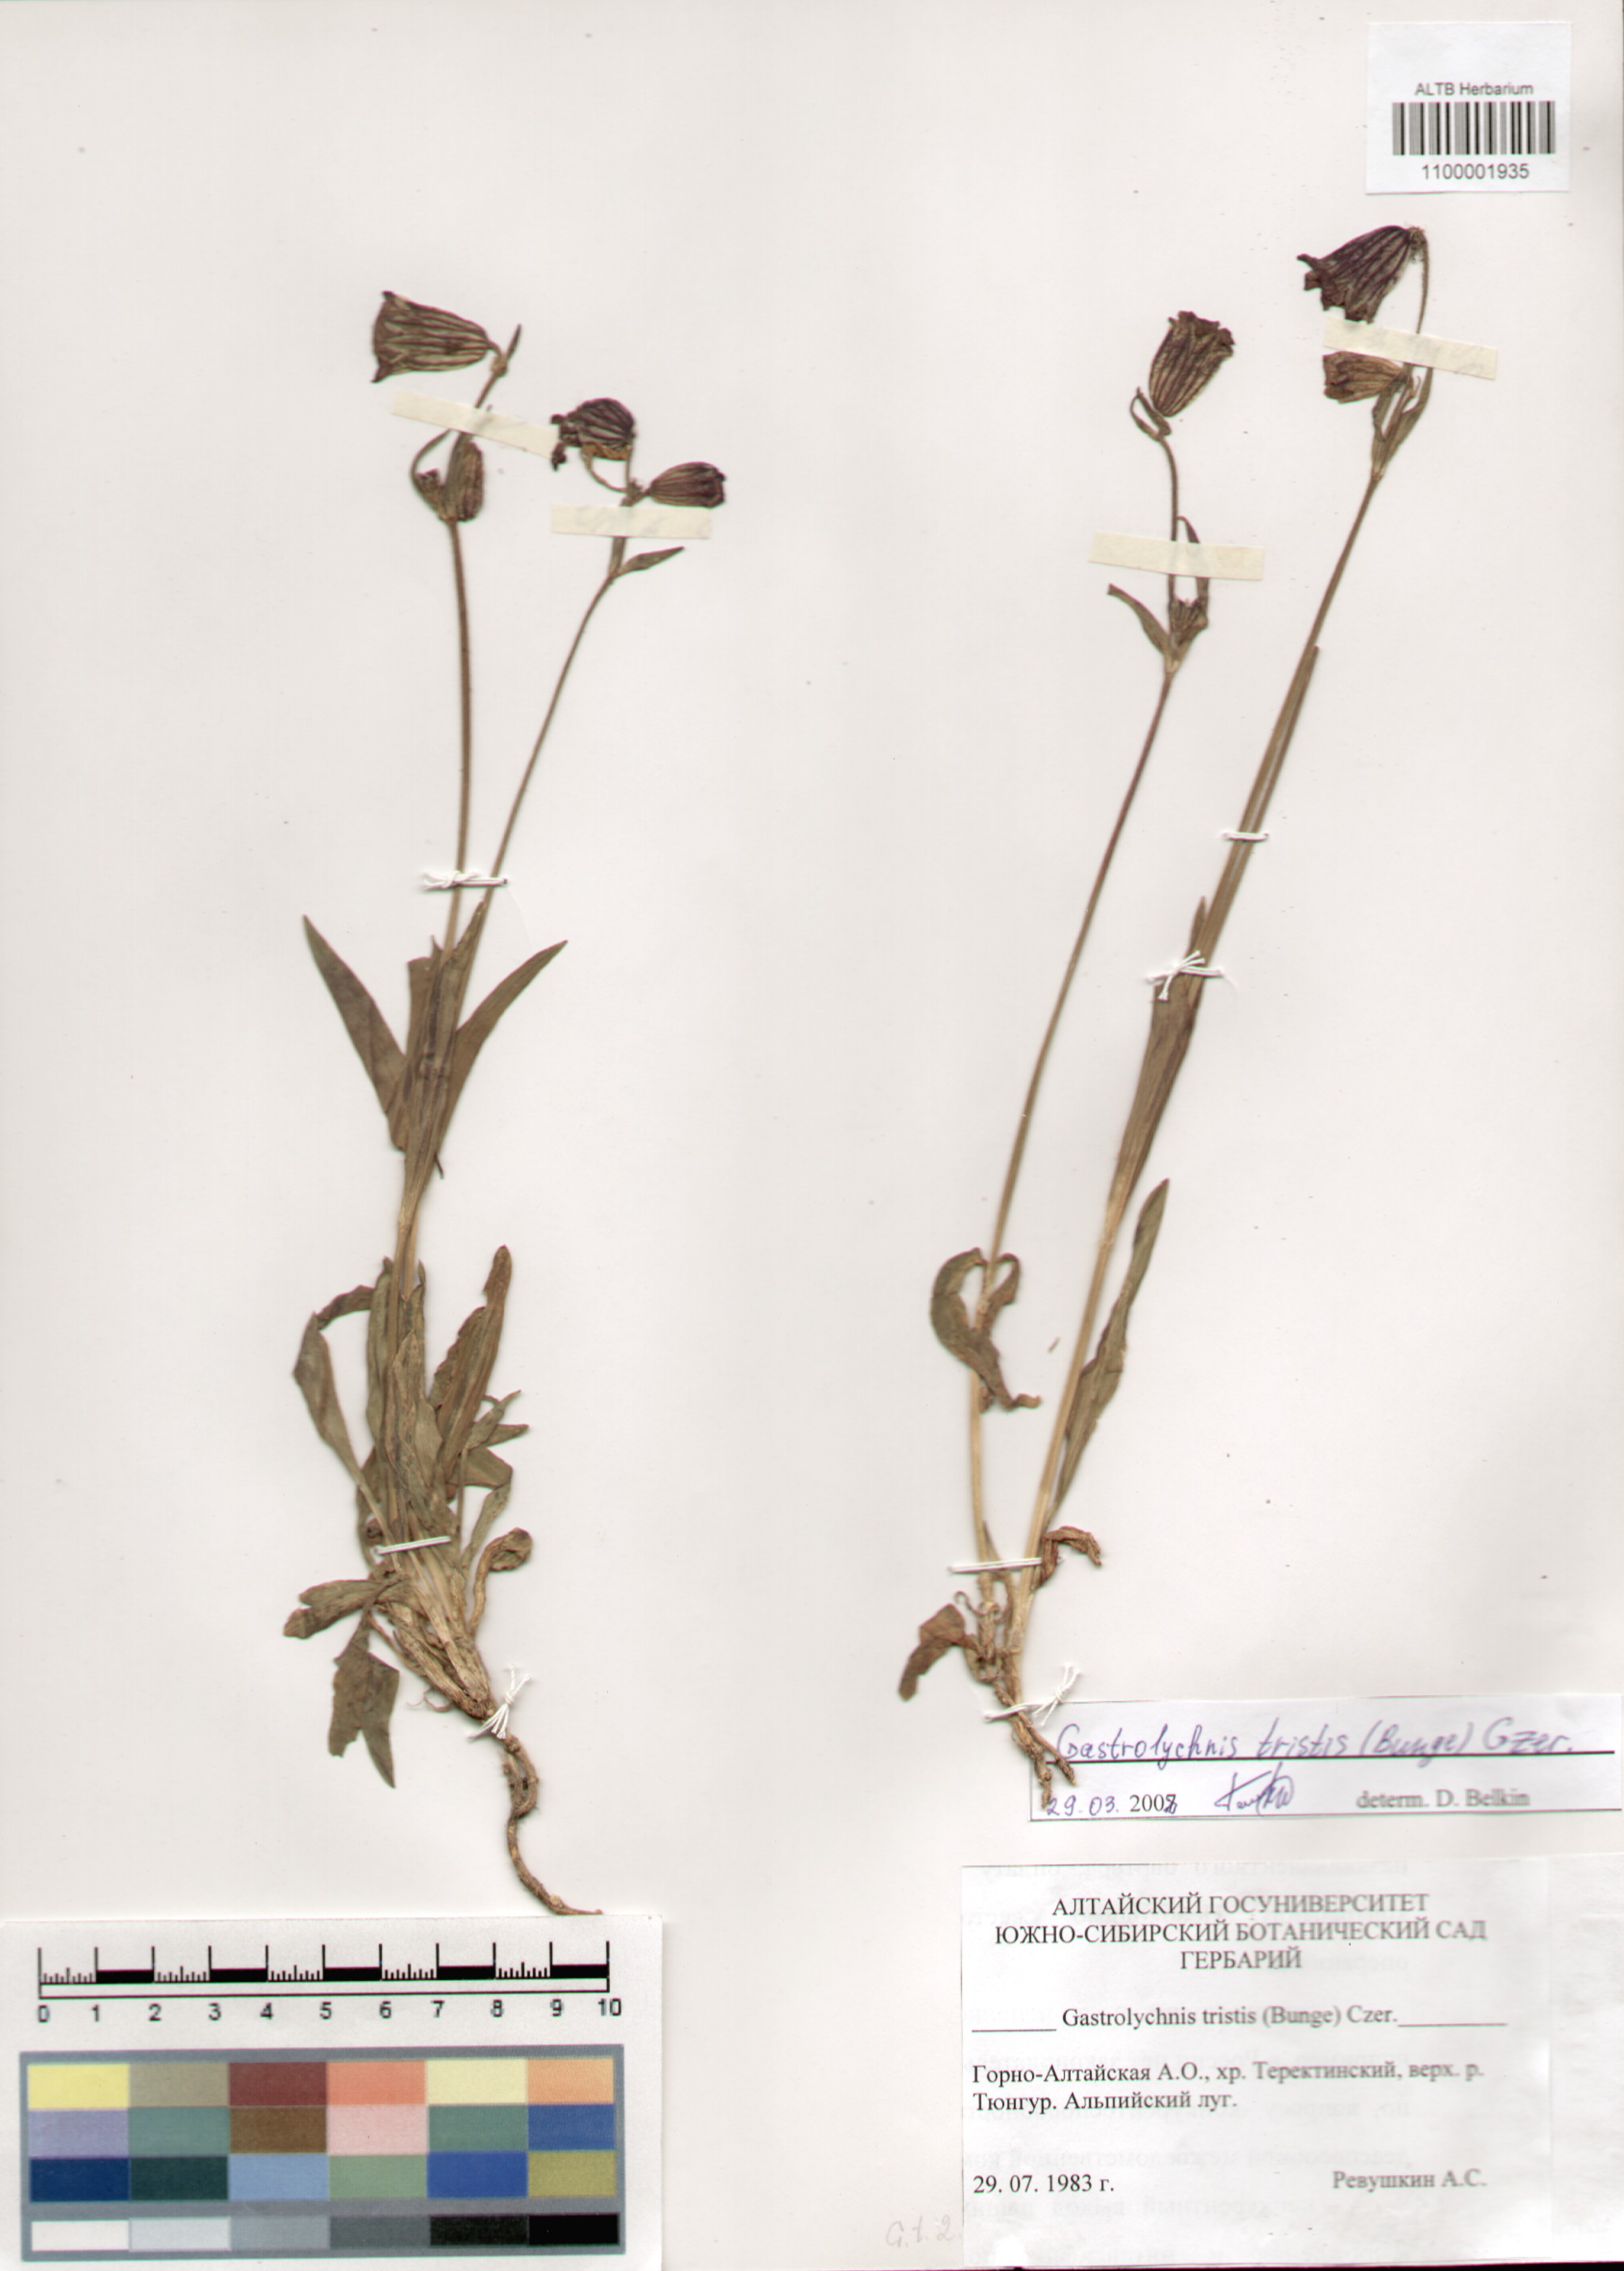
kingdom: Plantae
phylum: Tracheophyta
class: Magnoliopsida
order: Caryophyllales
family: Caryophyllaceae
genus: Silene
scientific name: Silene bungei
